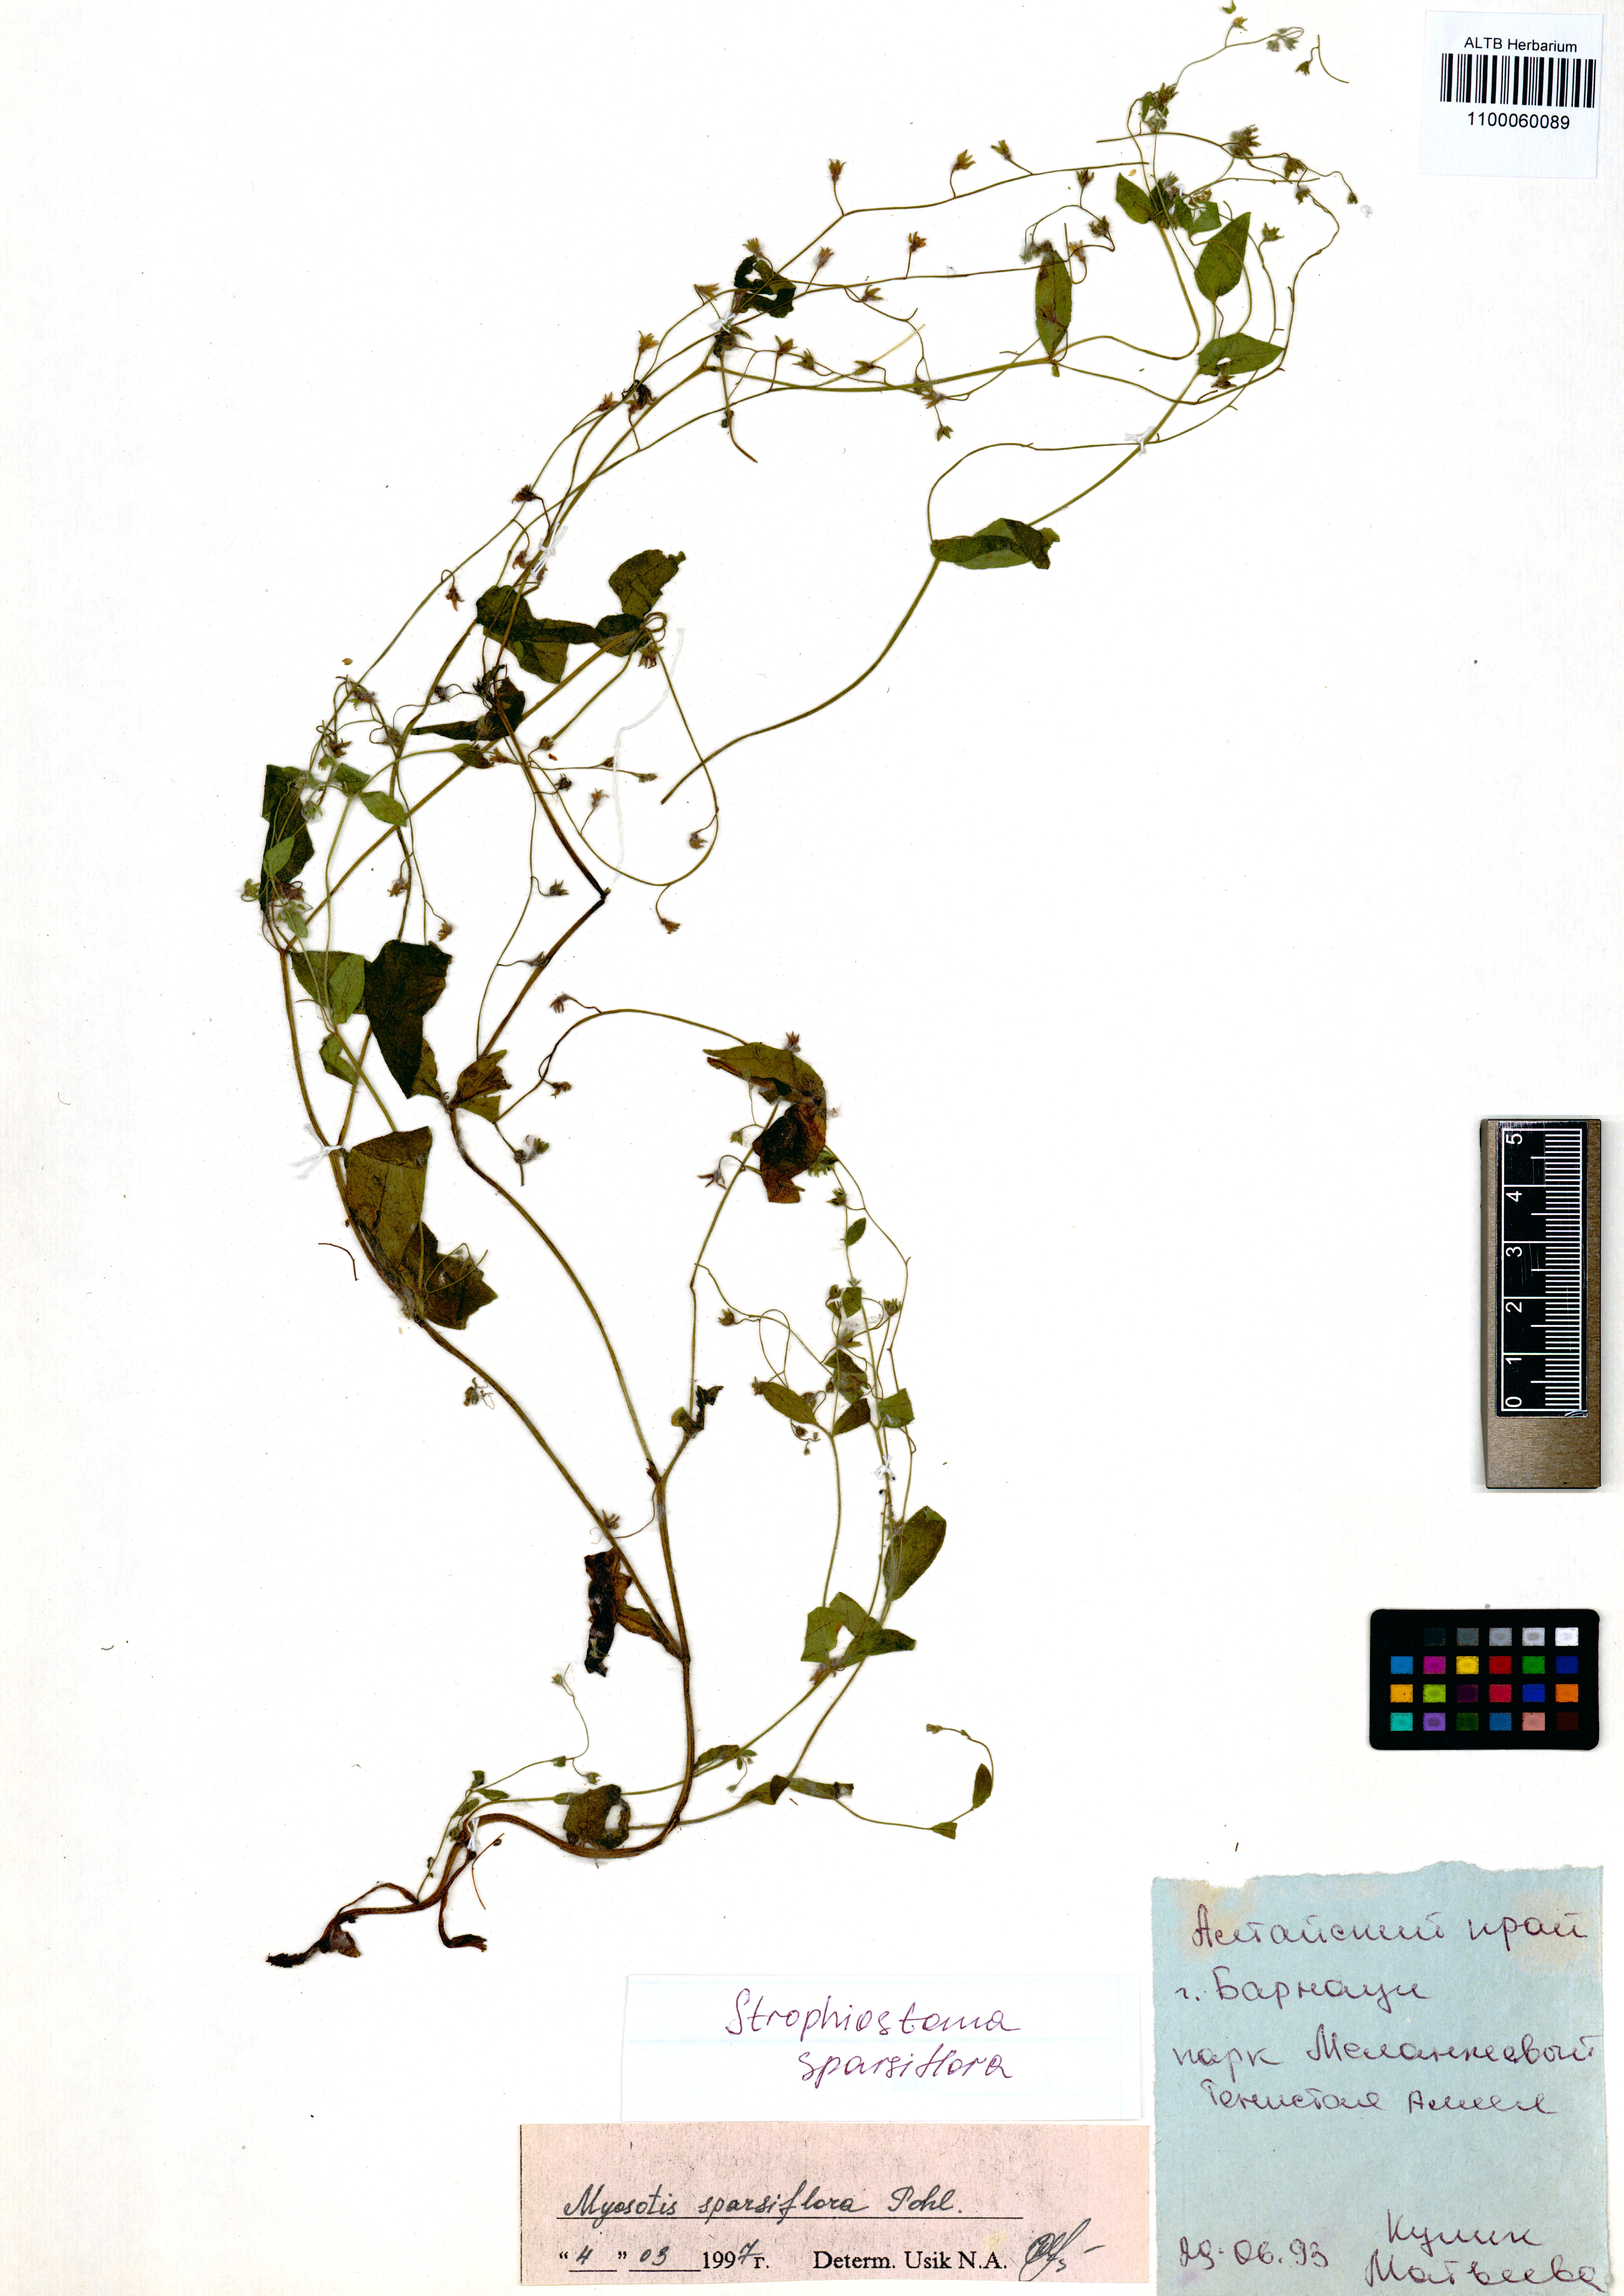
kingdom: Plantae
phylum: Tracheophyta
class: Magnoliopsida
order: Boraginales
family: Boraginaceae
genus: Myosotis
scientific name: Myosotis sparsiflora
